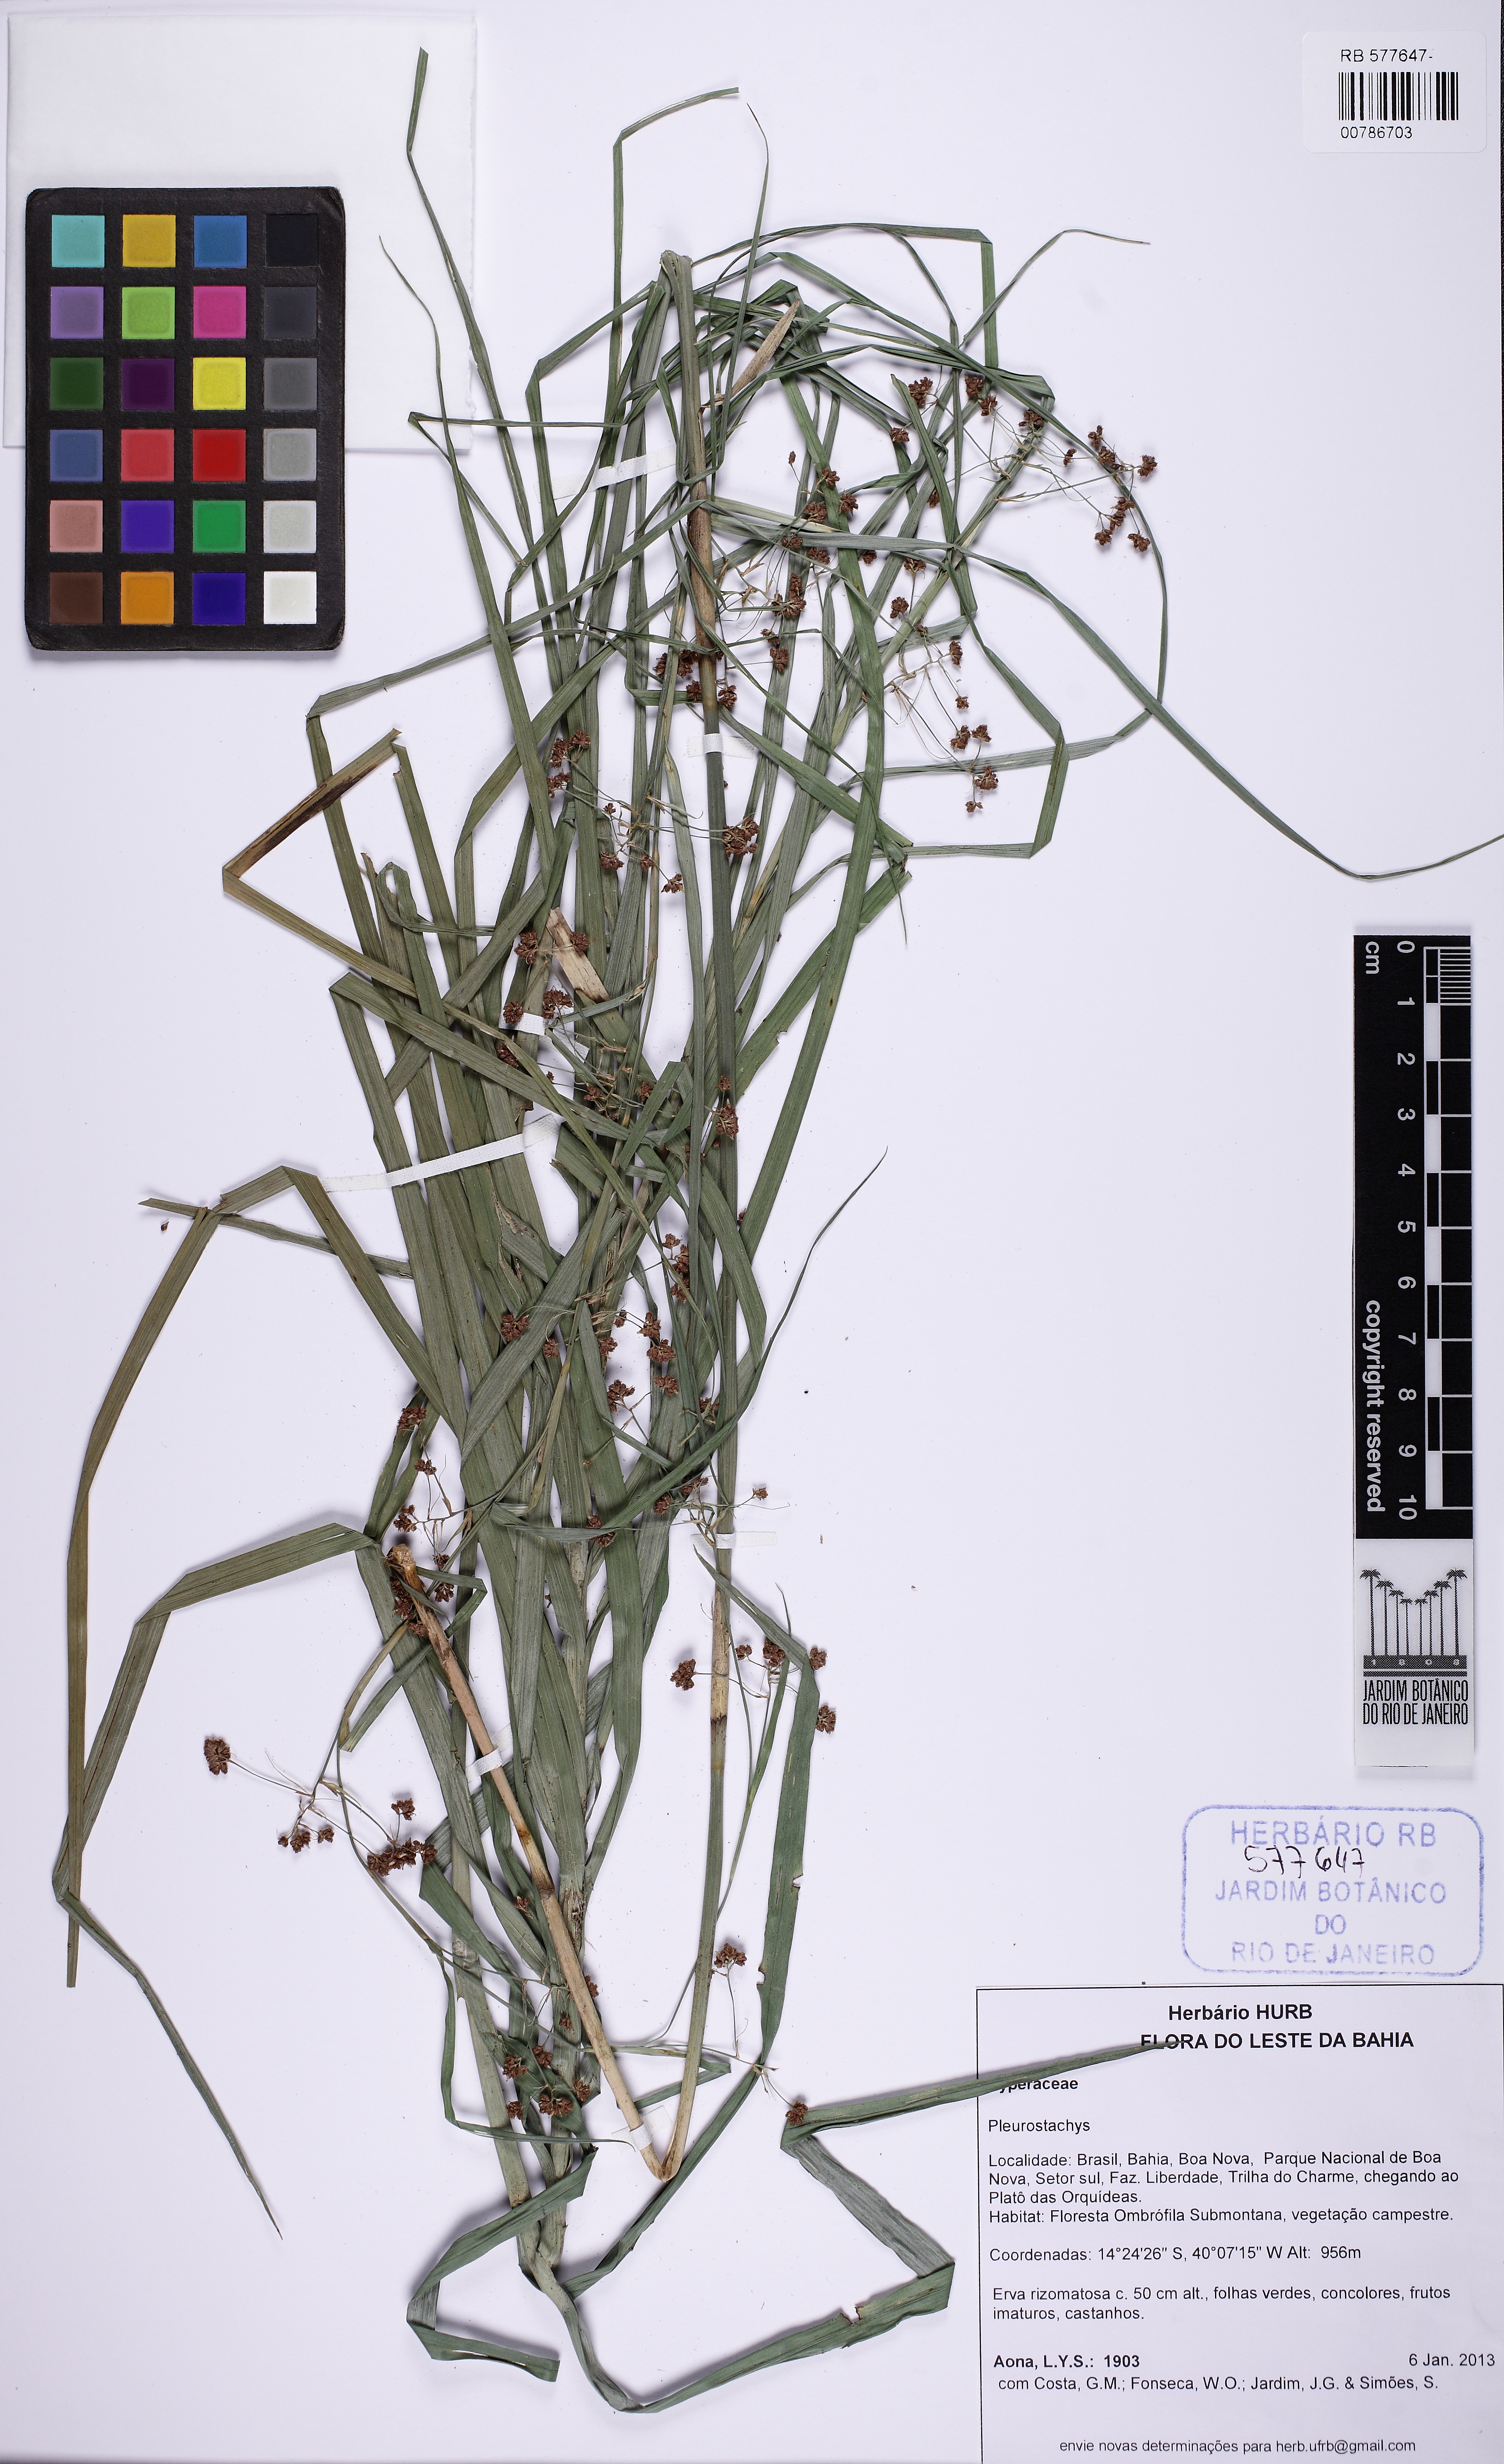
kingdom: Plantae
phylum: Tracheophyta
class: Liliopsida
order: Poales
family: Cyperaceae
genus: Rhynchospora
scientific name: Rhynchospora
